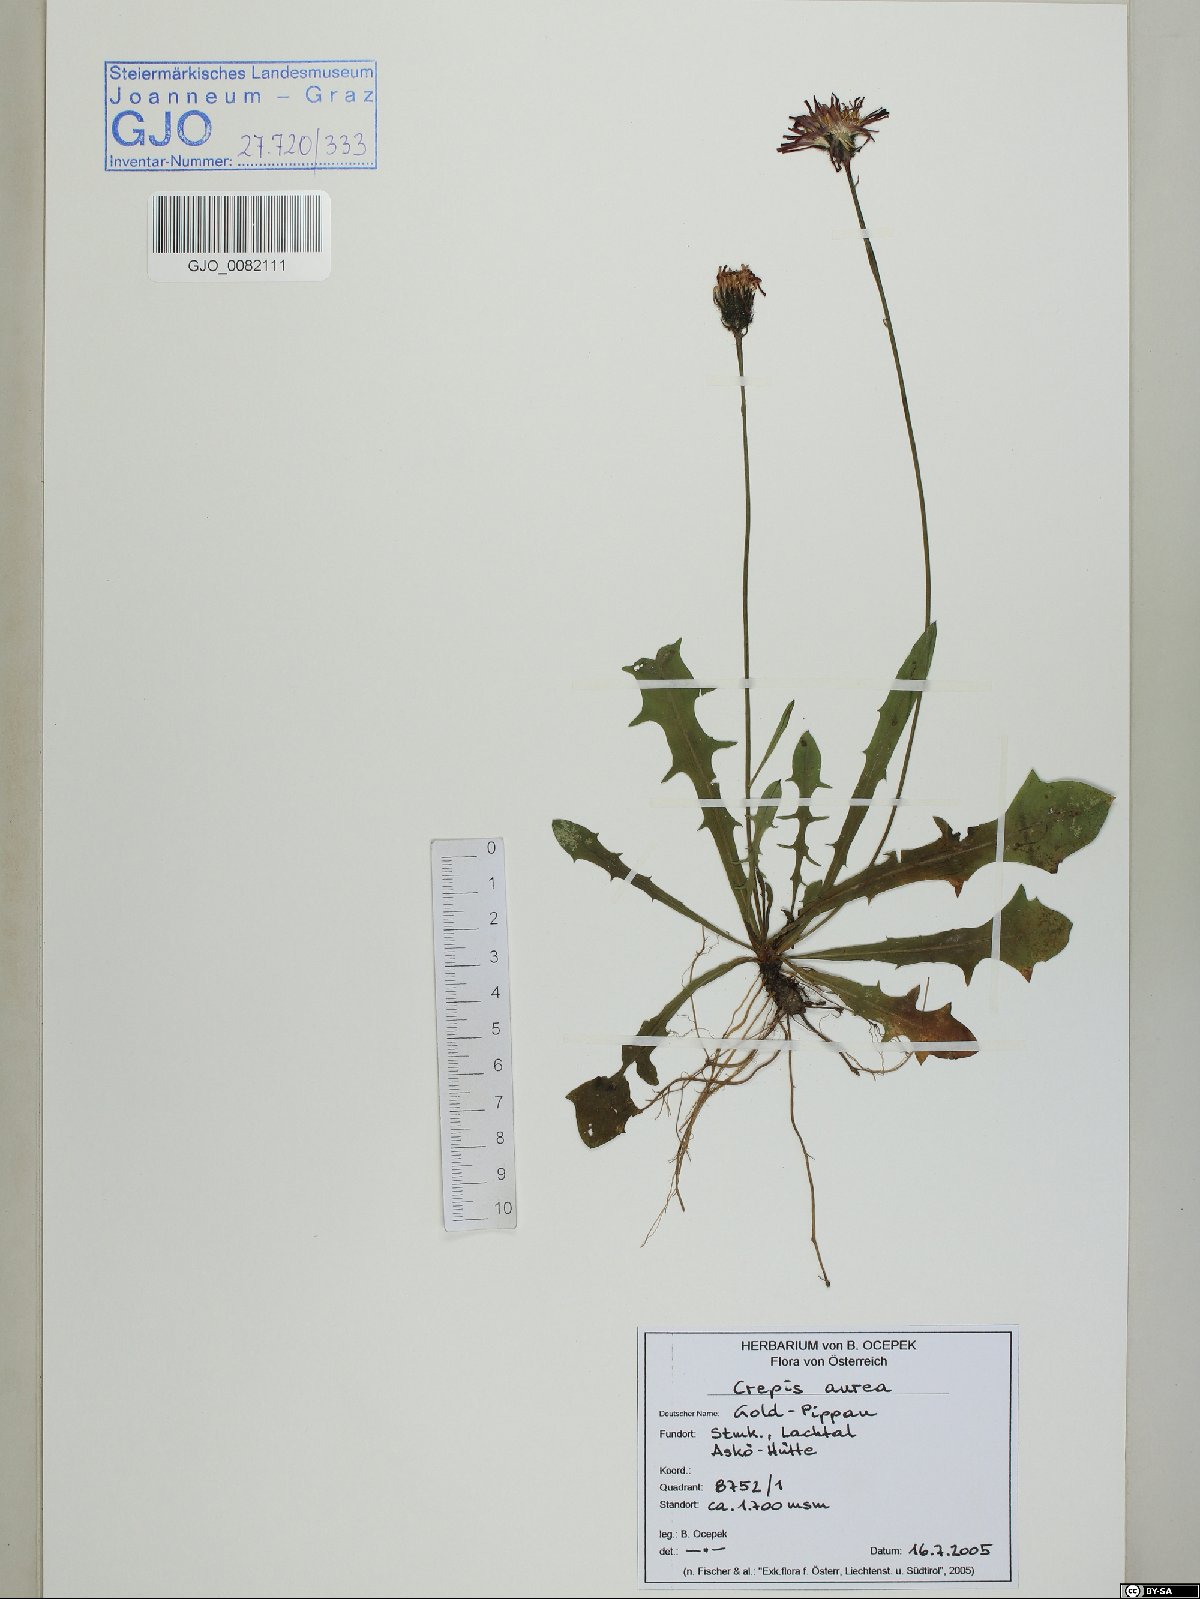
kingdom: Plantae
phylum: Tracheophyta
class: Magnoliopsida
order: Asterales
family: Asteraceae
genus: Crepis
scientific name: Crepis aurea
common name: Golden hawk's-beard
